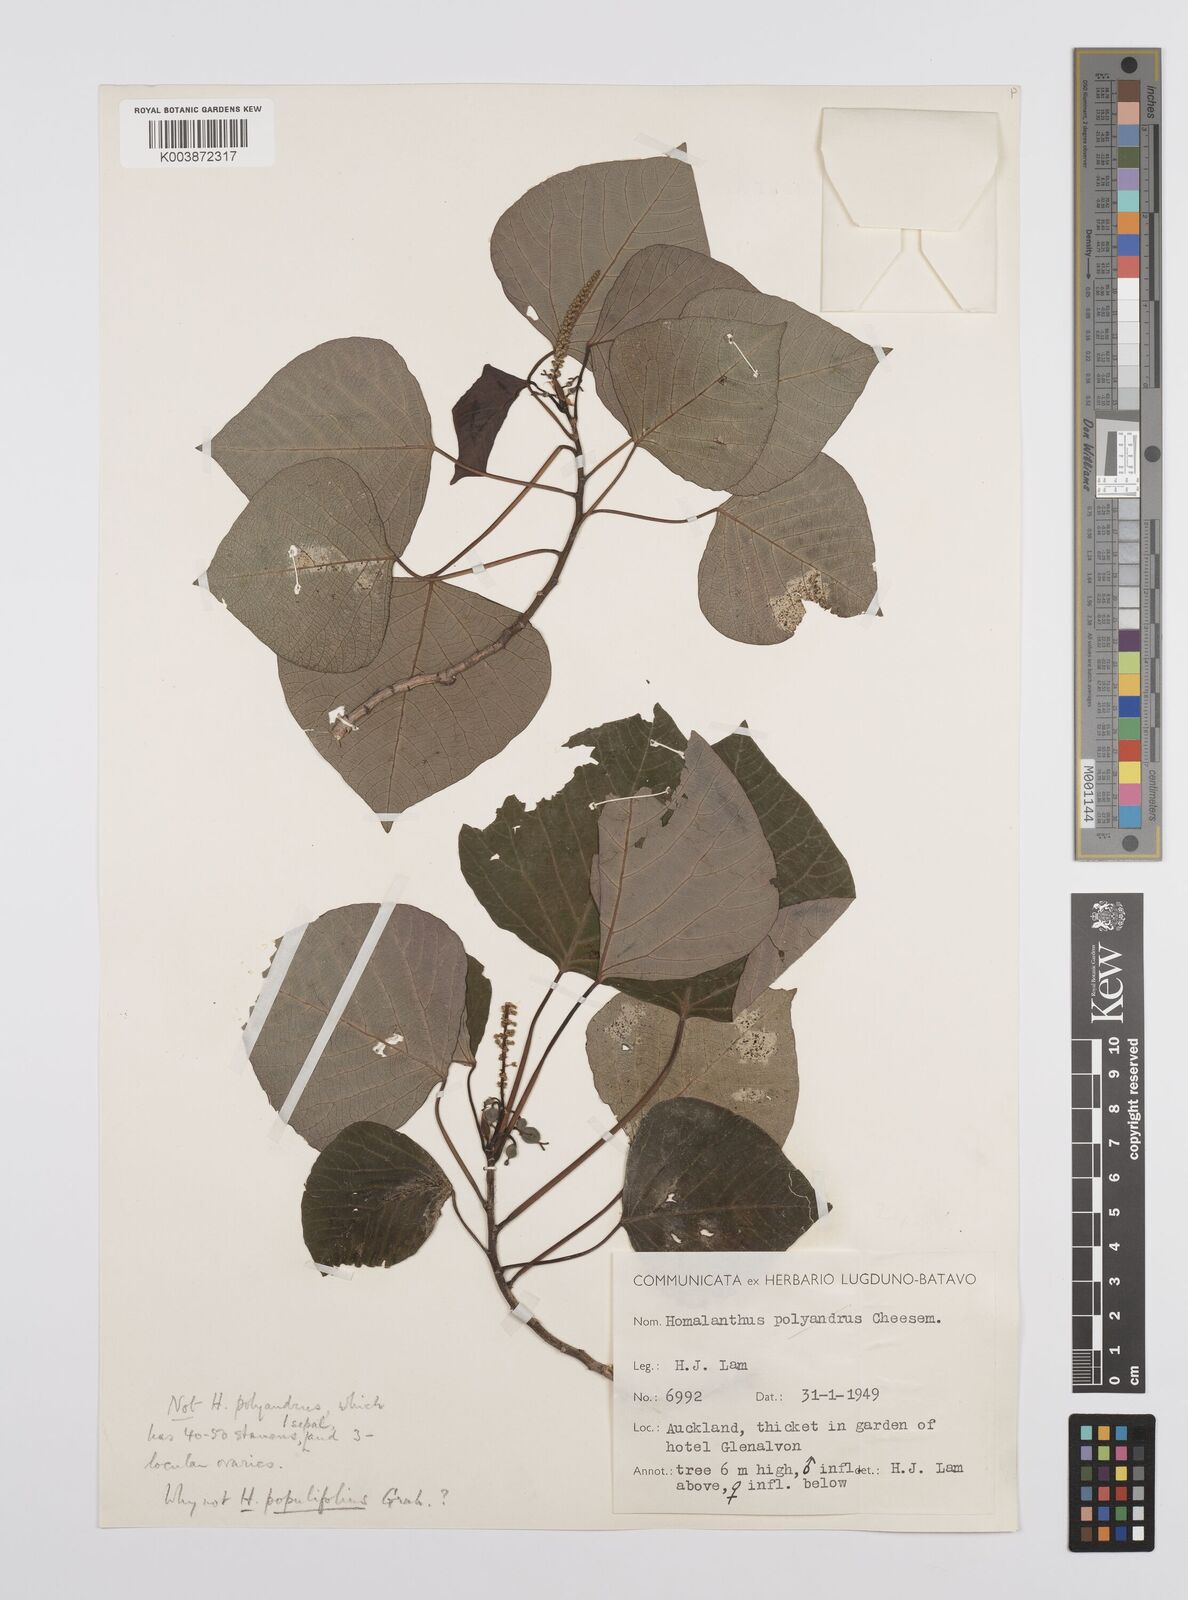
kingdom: Plantae
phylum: Tracheophyta
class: Magnoliopsida
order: Malpighiales
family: Euphorbiaceae
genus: Homalanthus
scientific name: Homalanthus populifolius
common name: Queensland poplar
